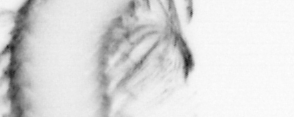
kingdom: Animalia
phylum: Annelida
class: Polychaeta
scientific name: Polychaeta
